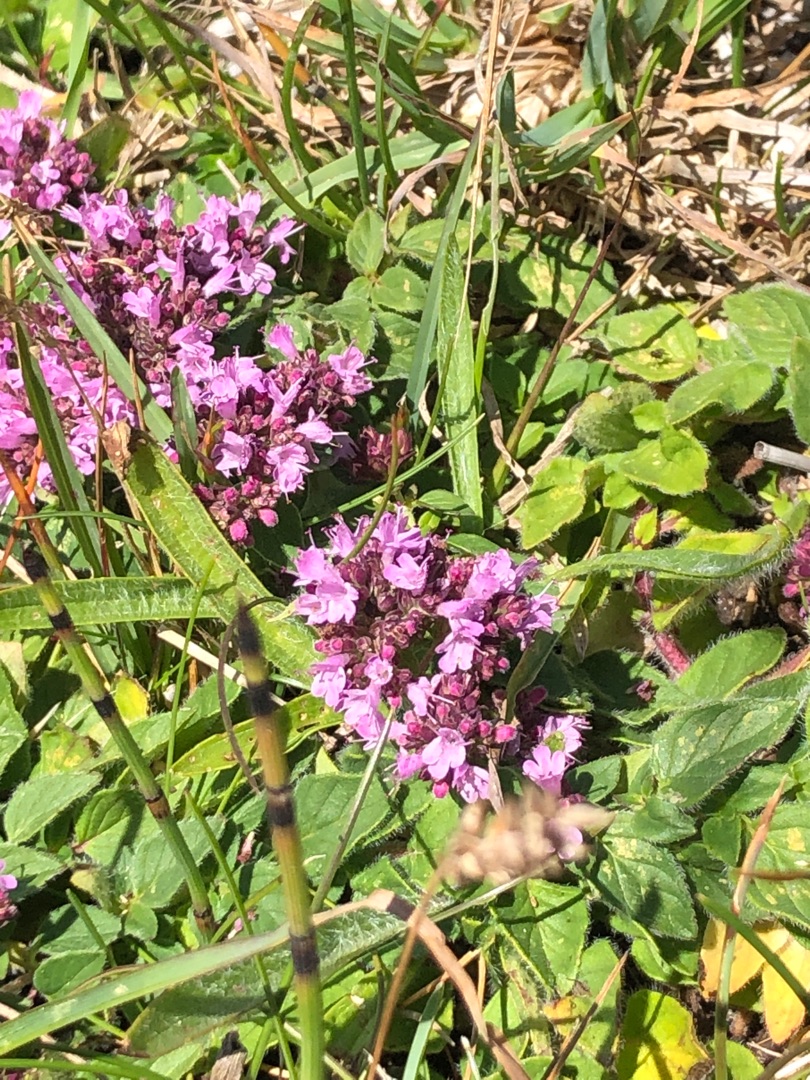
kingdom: Plantae
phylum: Tracheophyta
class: Magnoliopsida
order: Lamiales
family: Lamiaceae
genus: Origanum
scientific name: Origanum vulgare
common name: Merian
